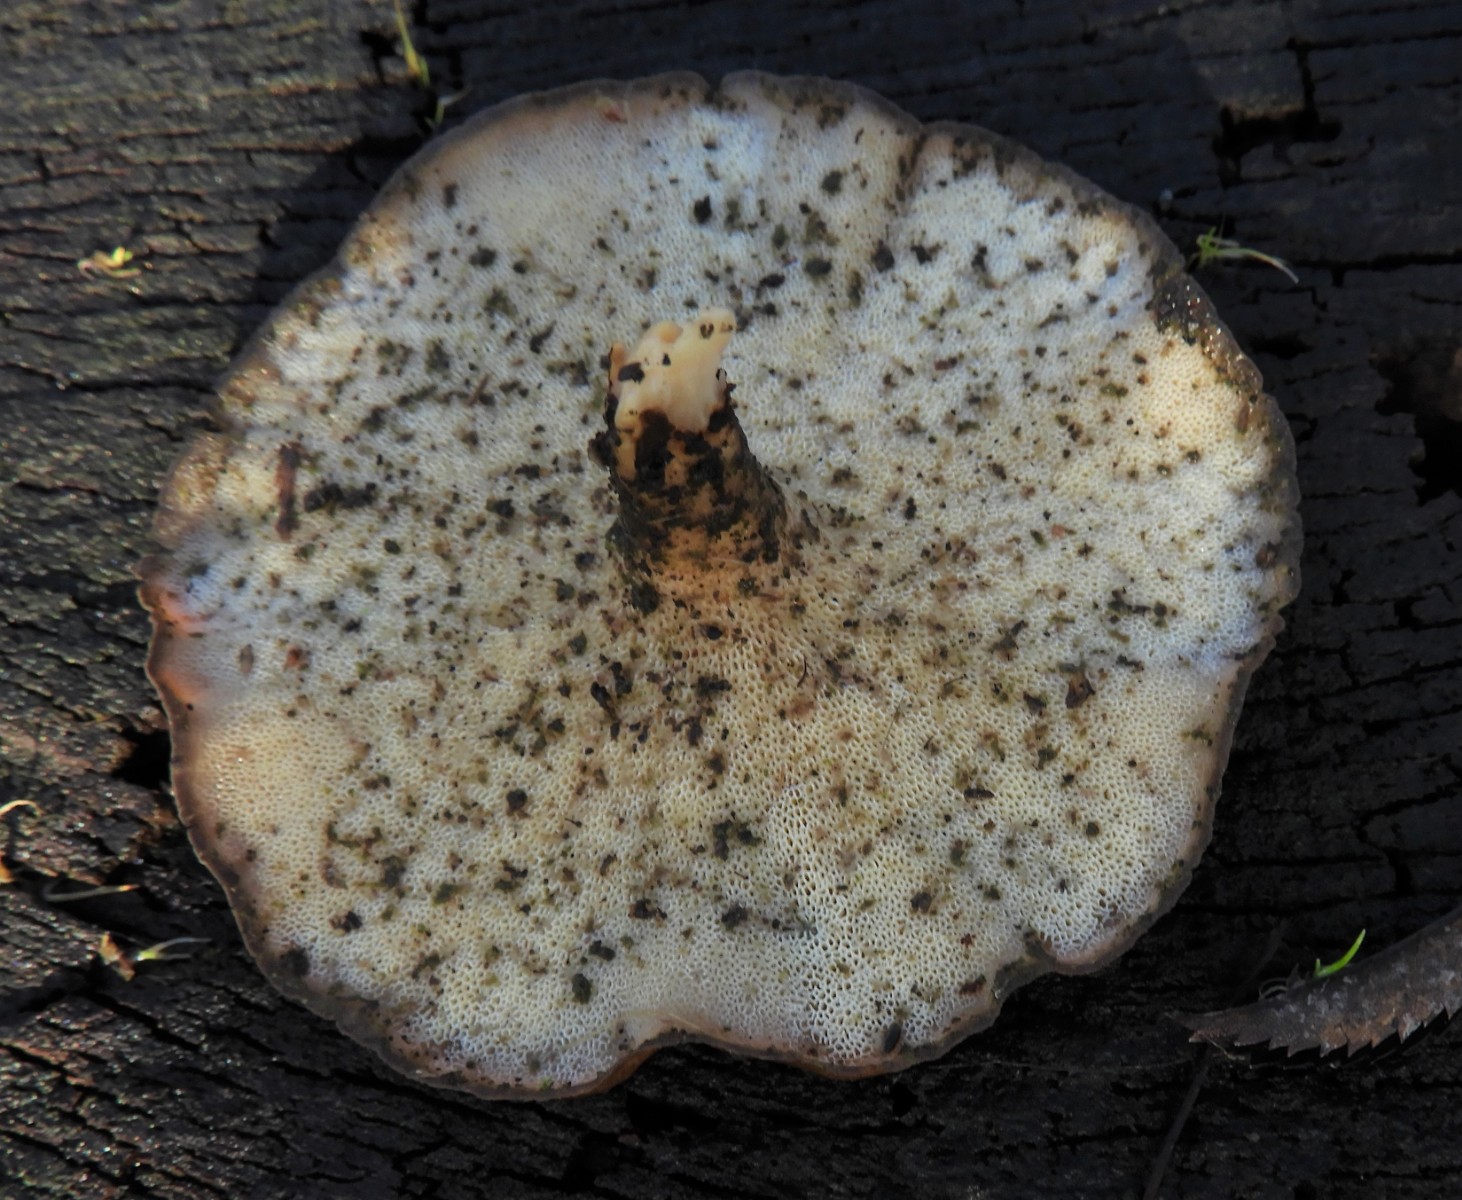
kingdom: Fungi
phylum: Basidiomycota
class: Agaricomycetes
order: Polyporales
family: Polyporaceae
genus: Lentinus
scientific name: Lentinus brumalis
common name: vinter-stilkporesvamp
